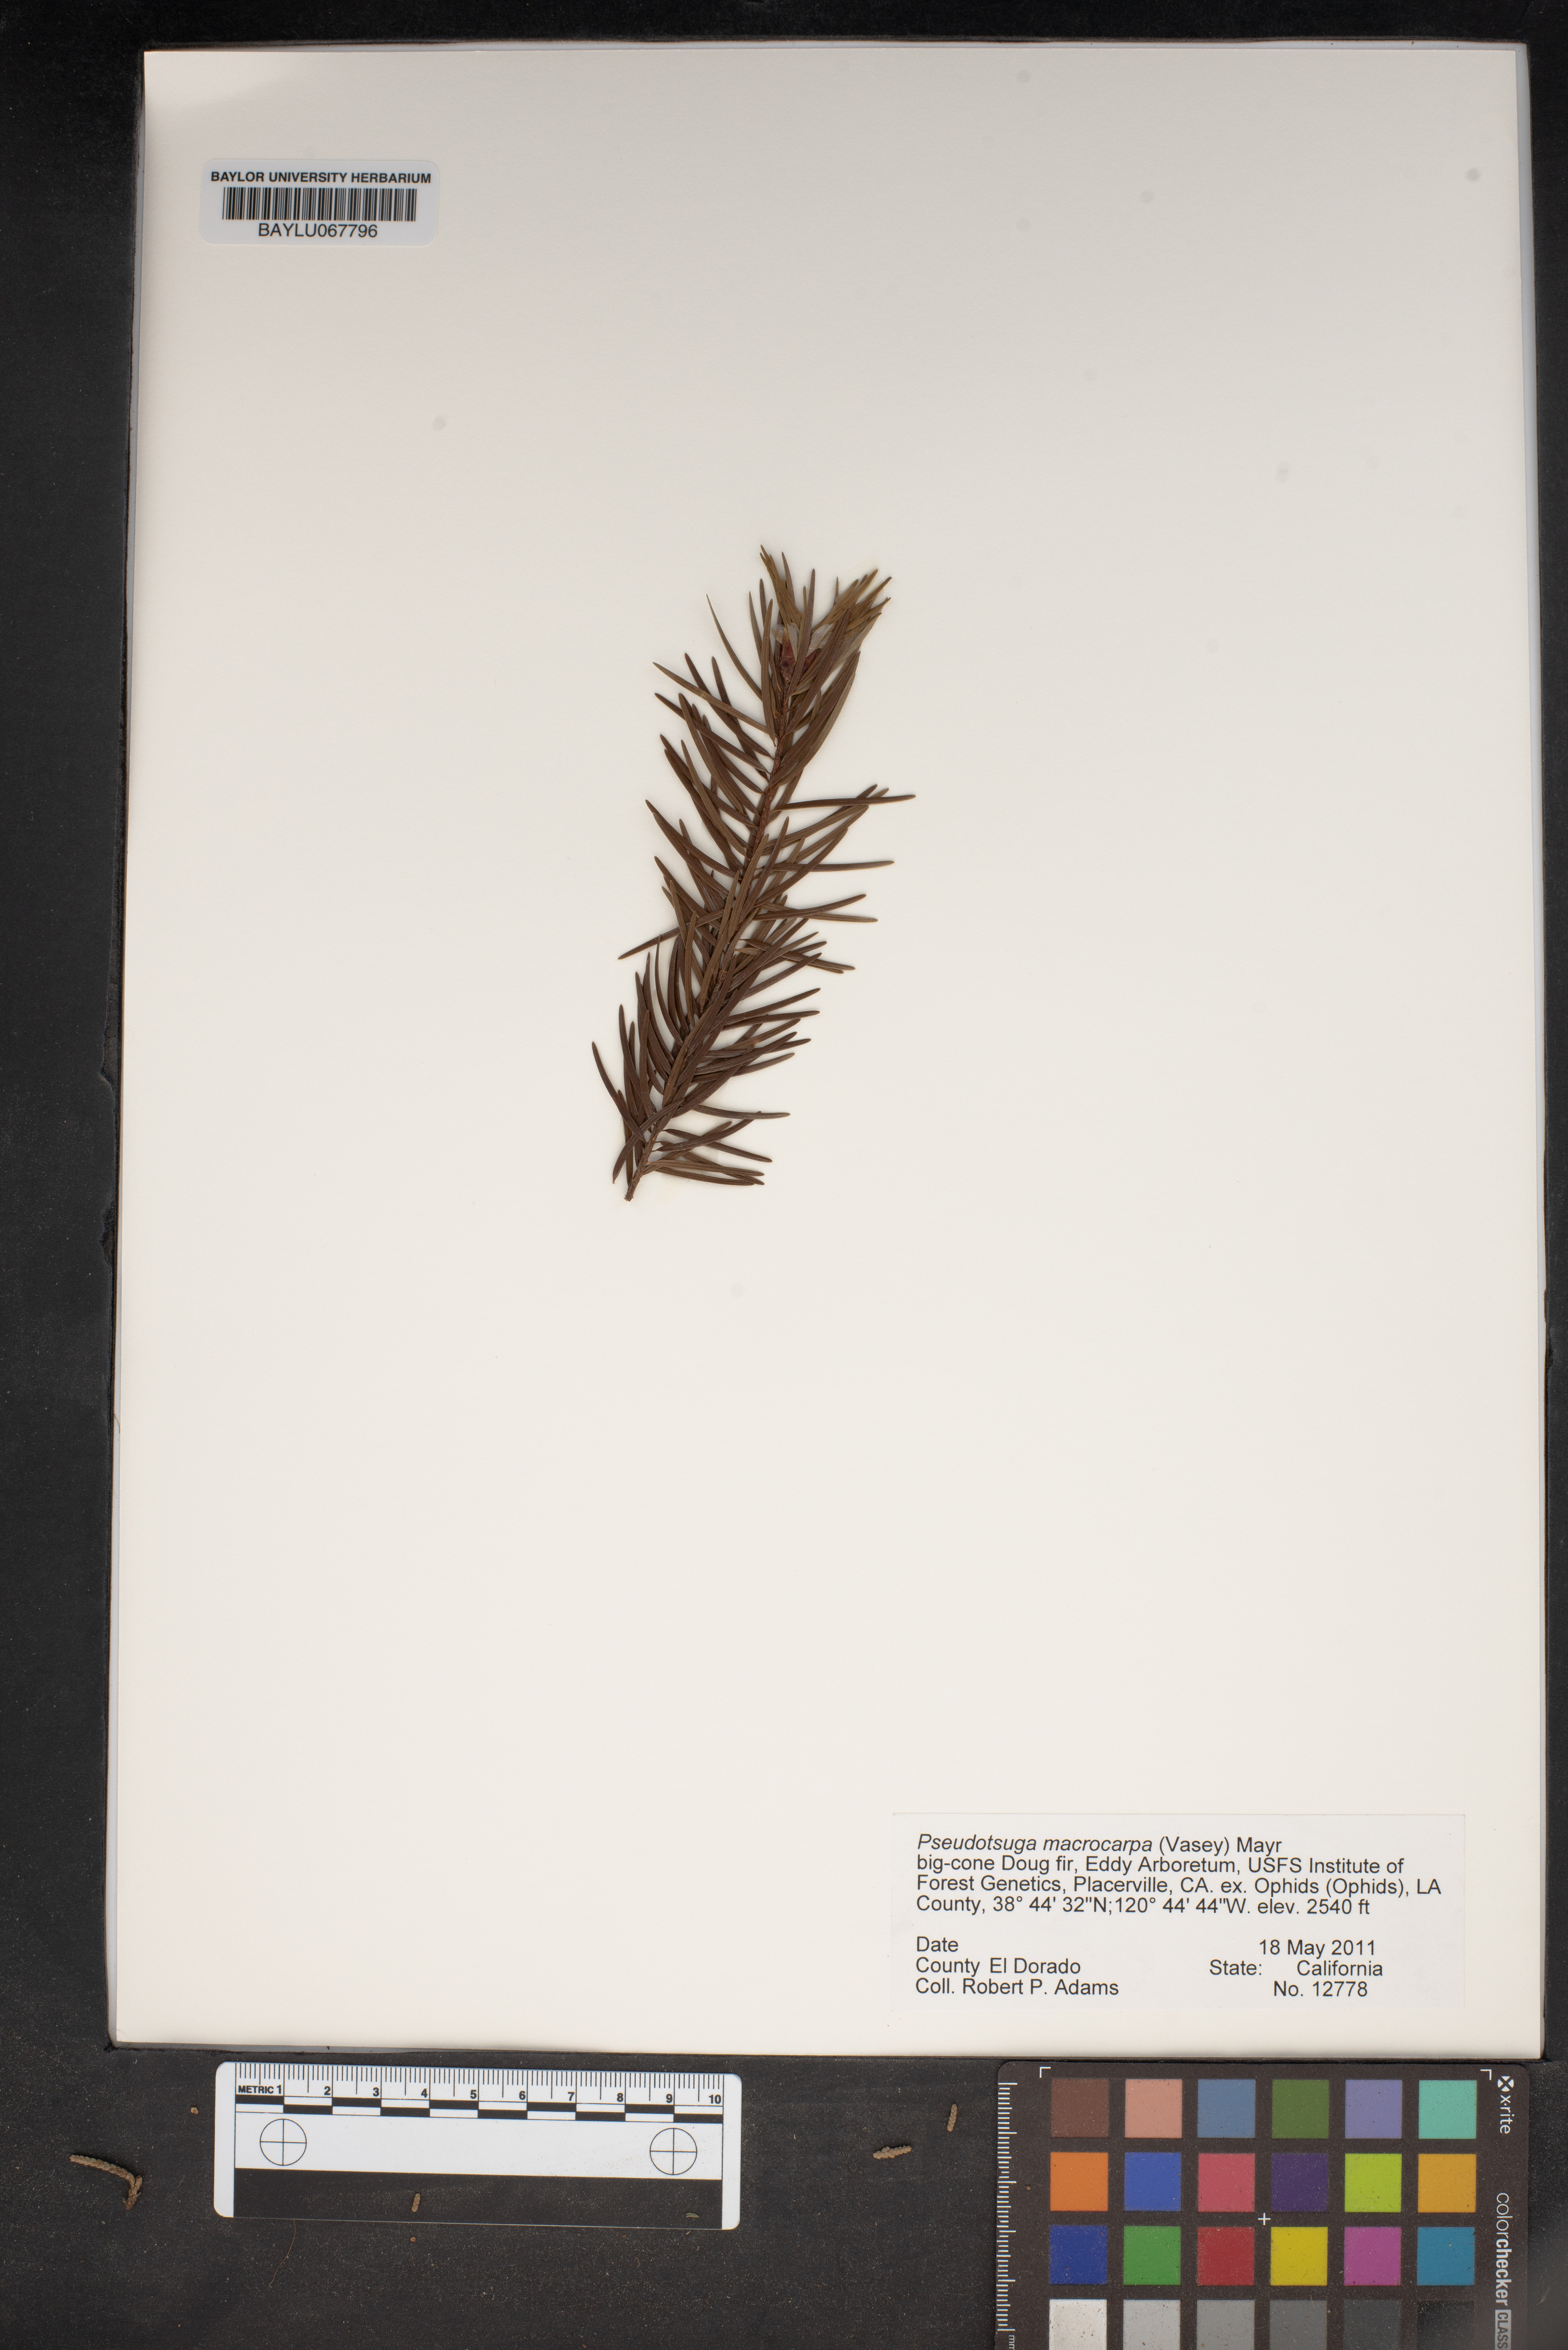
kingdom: Plantae
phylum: Tracheophyta
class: Pinopsida
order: Pinales
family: Pinaceae
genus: Pseudotsuga
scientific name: Pseudotsuga macrocarpa
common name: Big-cone douglas-fir
